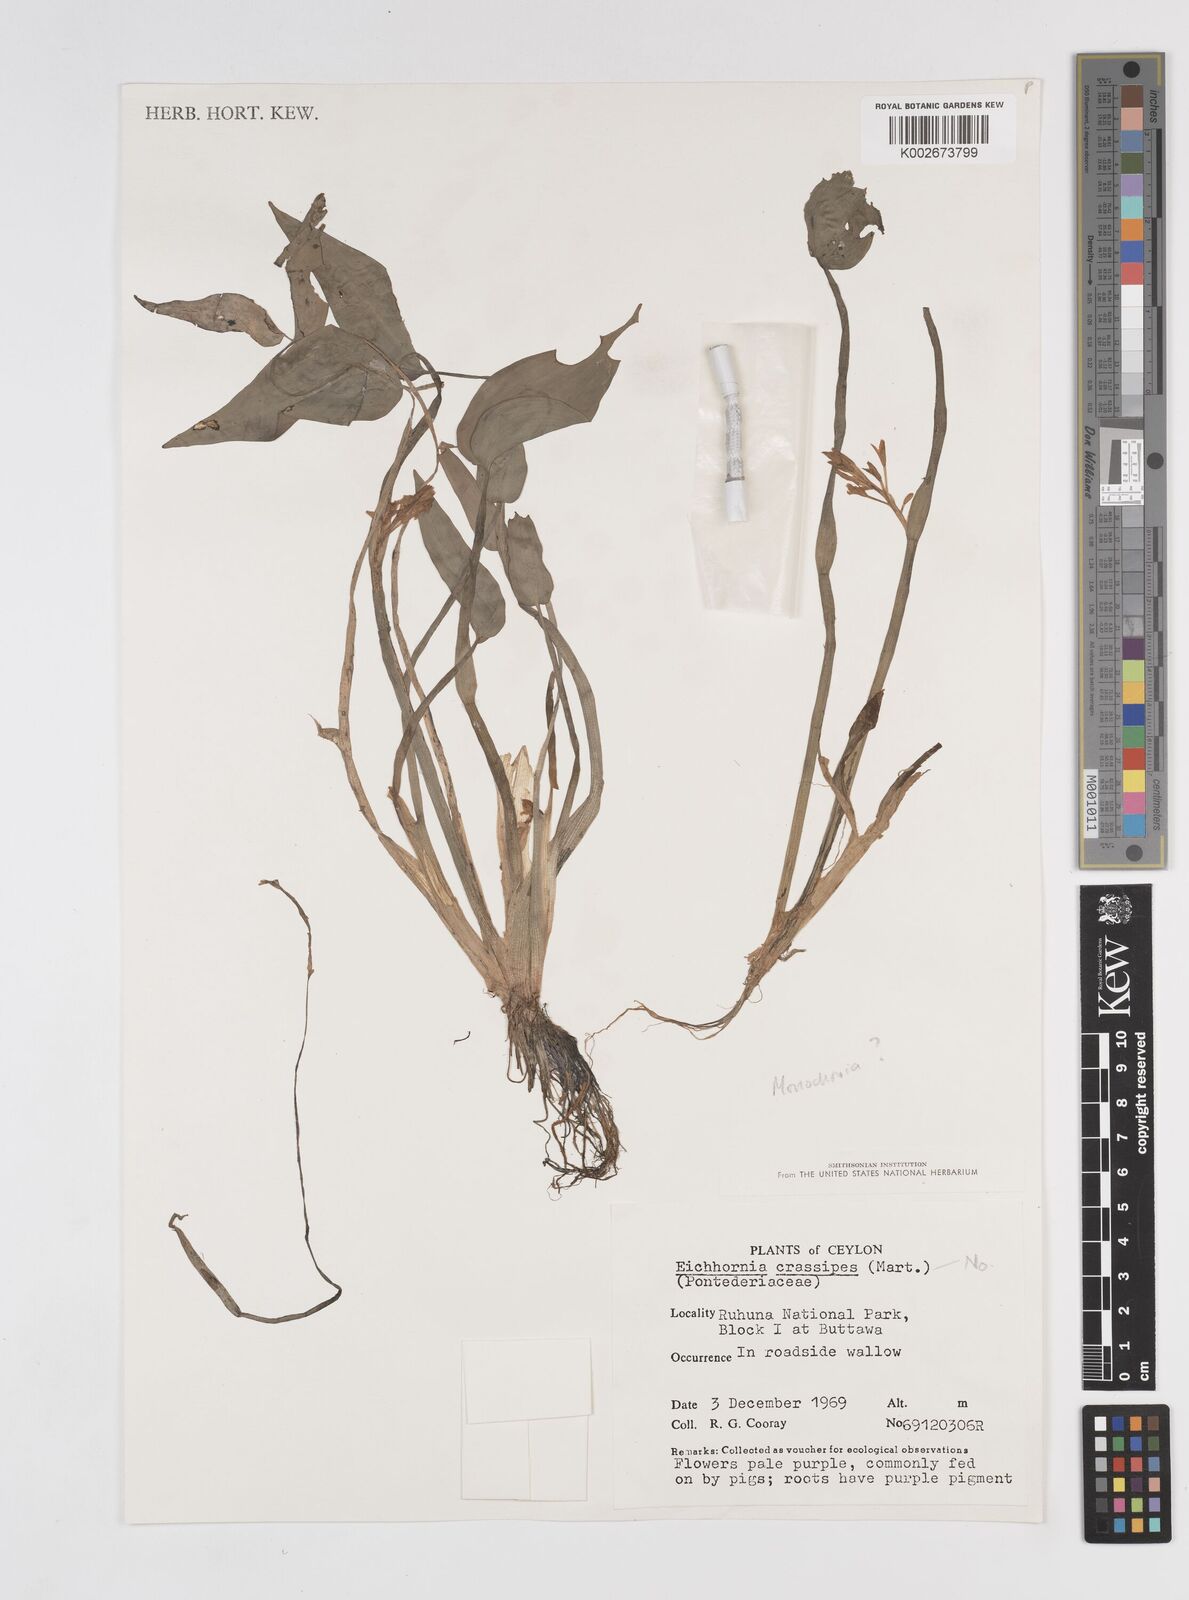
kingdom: Plantae
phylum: Tracheophyta
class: Liliopsida
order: Commelinales
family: Pontederiaceae
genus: Pontederia
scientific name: Pontederia crassipes
